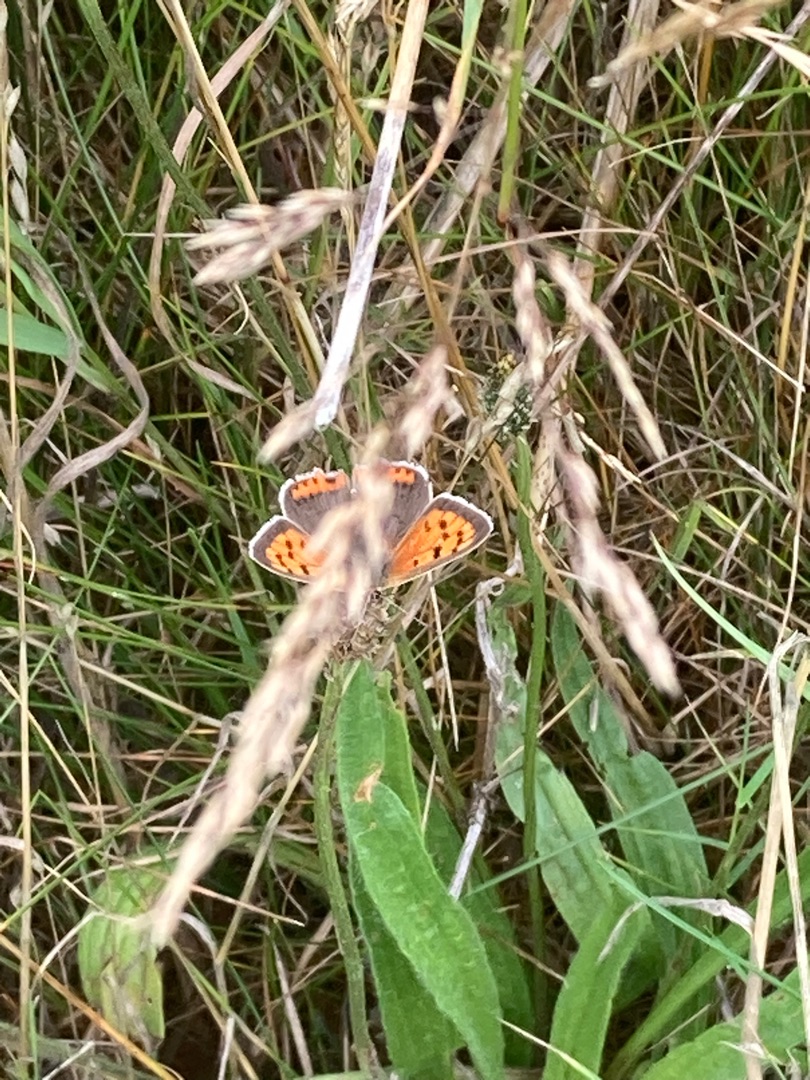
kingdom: Animalia
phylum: Arthropoda
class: Insecta
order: Lepidoptera
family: Lycaenidae
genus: Lycaena
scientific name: Lycaena phlaeas
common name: Lille ildfugl
